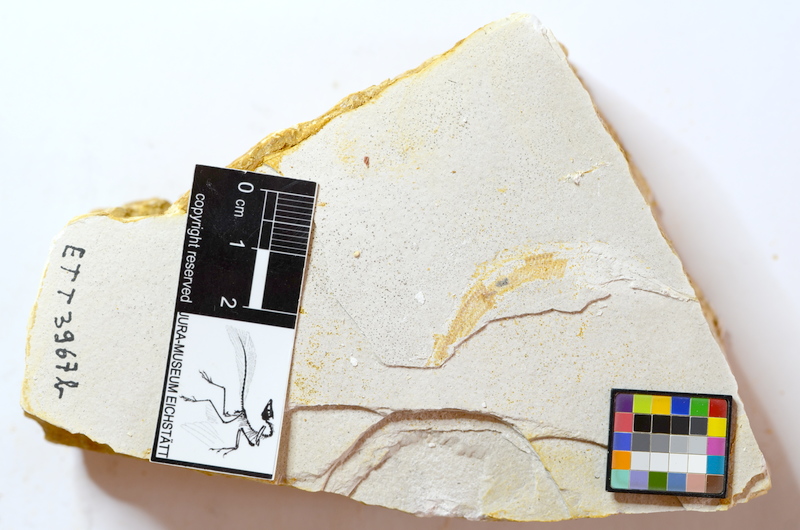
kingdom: Animalia
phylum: Chordata
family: Aspidorhynchidae
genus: Belonostomus
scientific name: Belonostomus kochii
